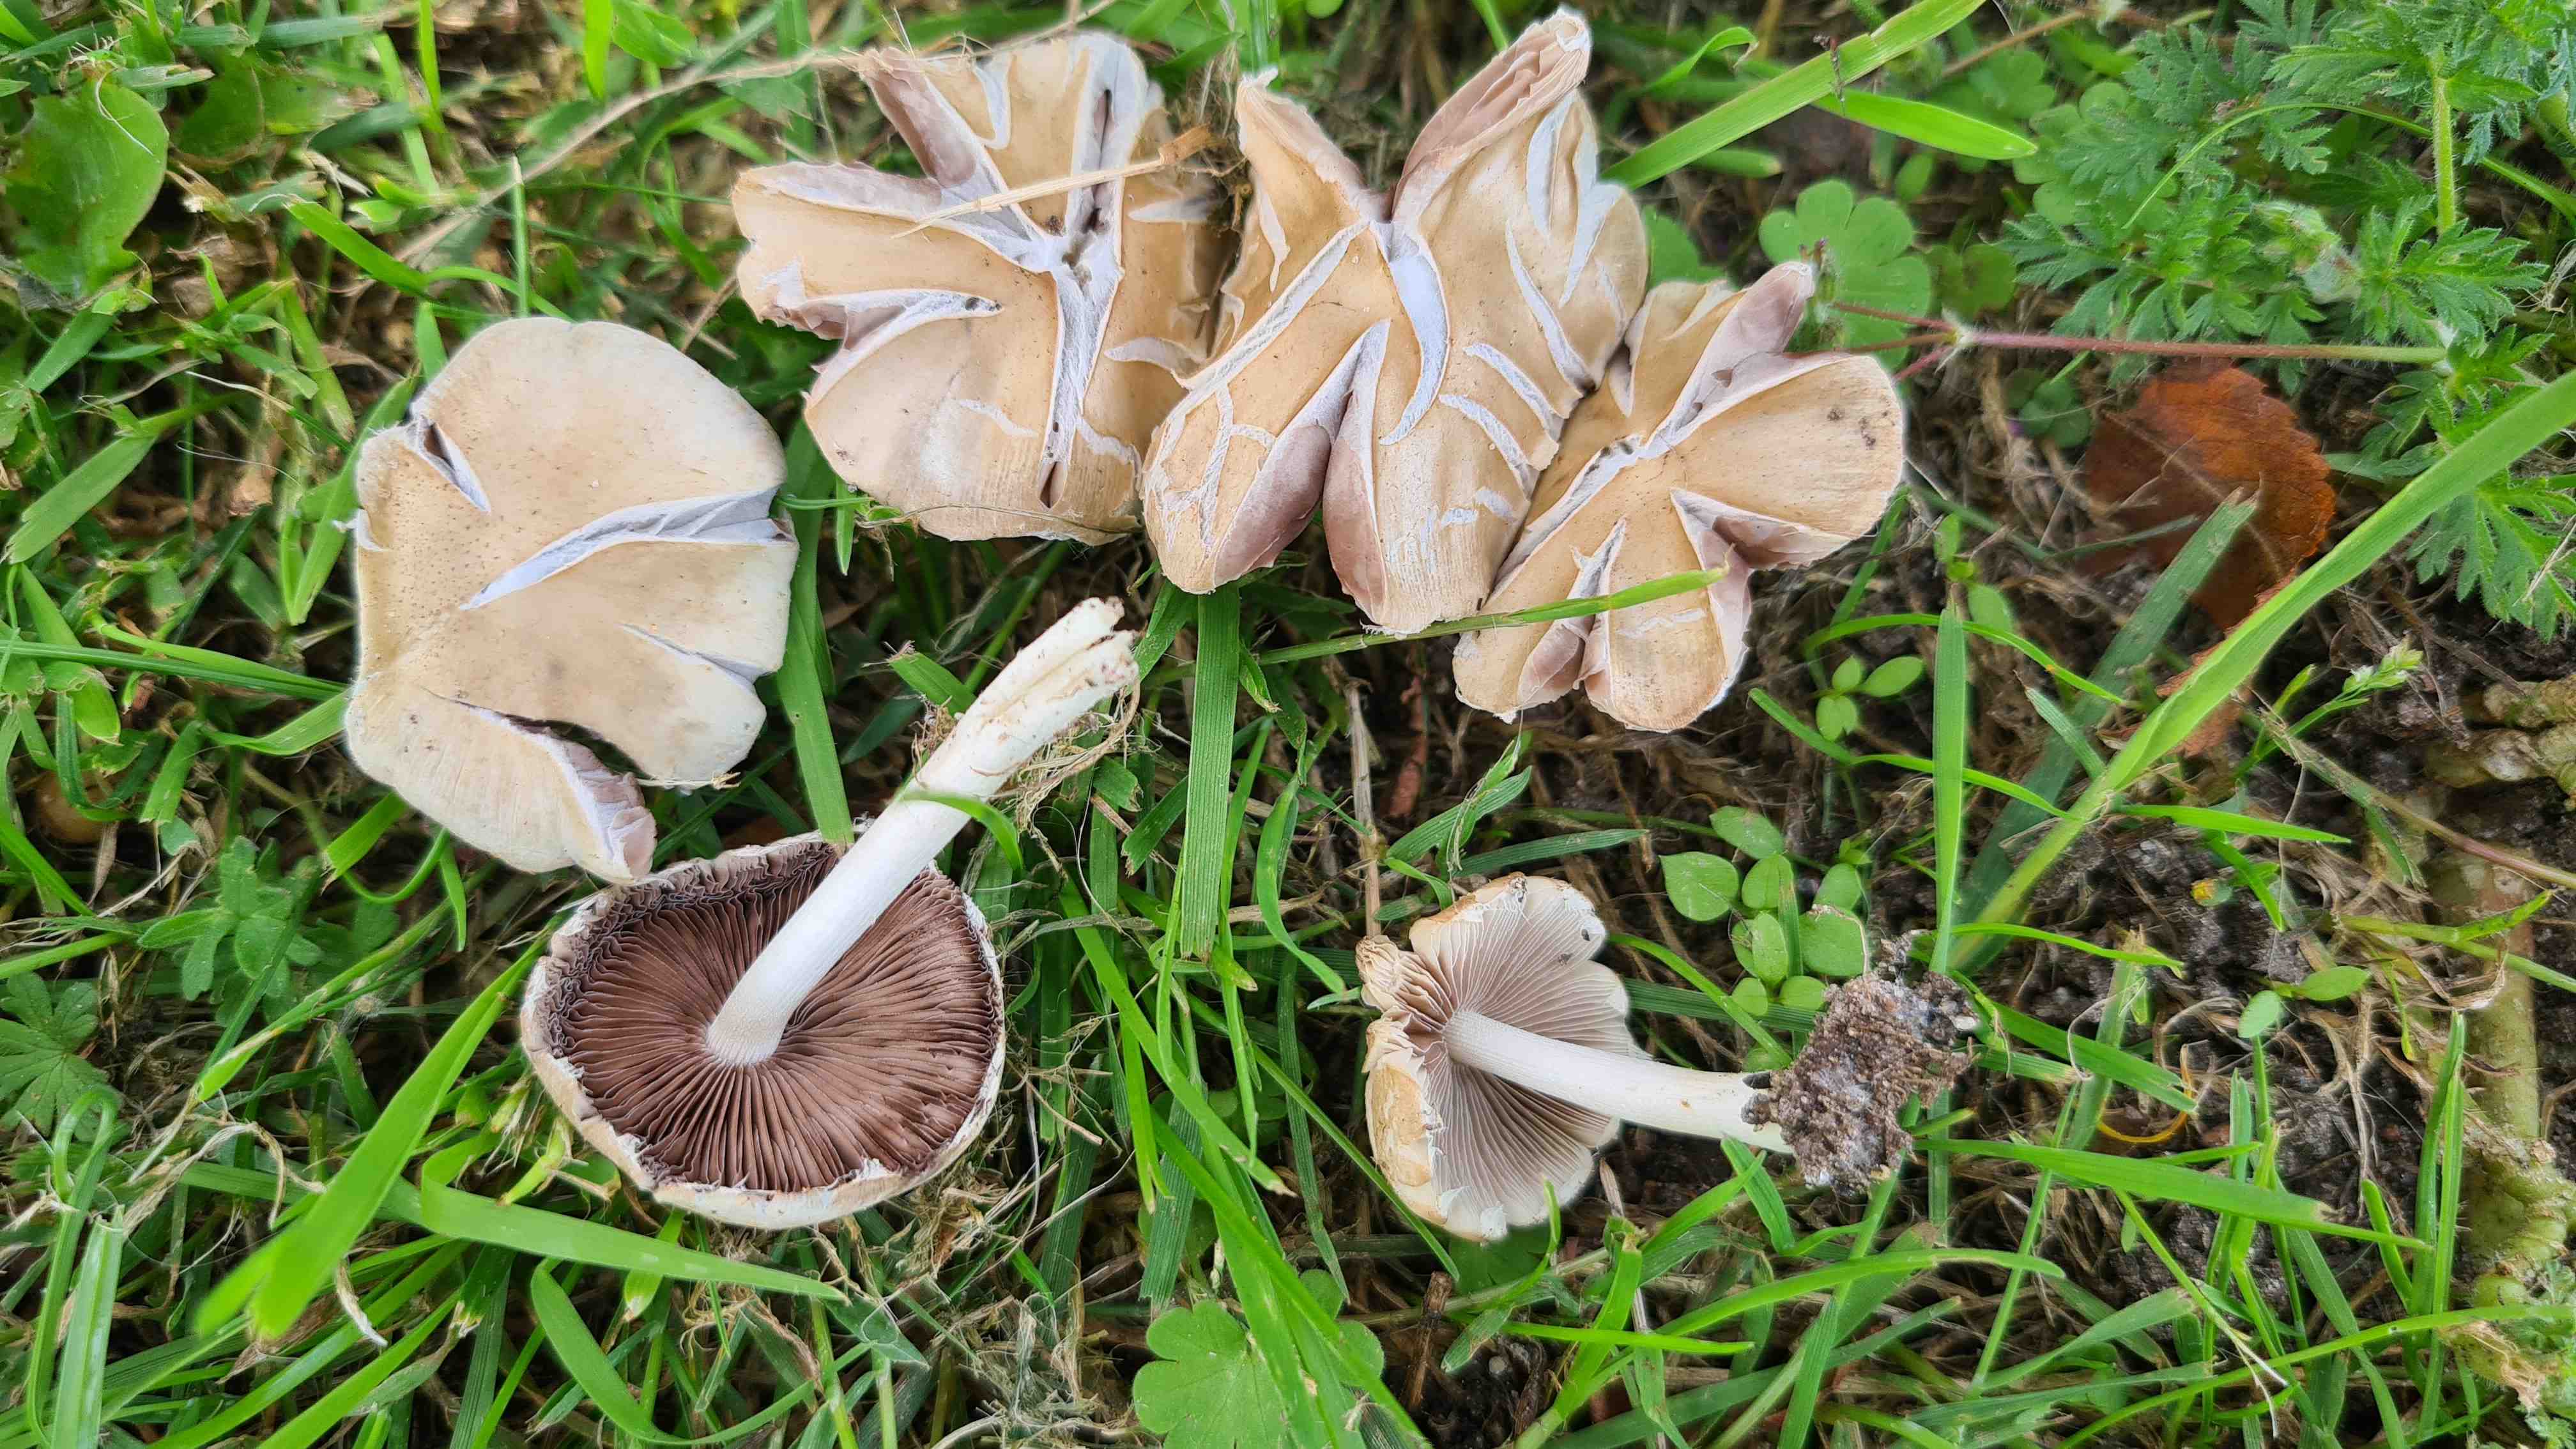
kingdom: Fungi
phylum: Basidiomycota
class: Agaricomycetes
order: Agaricales
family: Psathyrellaceae
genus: Candolleomyces
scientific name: Candolleomyces candolleanus
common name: Candolles mørkhat
